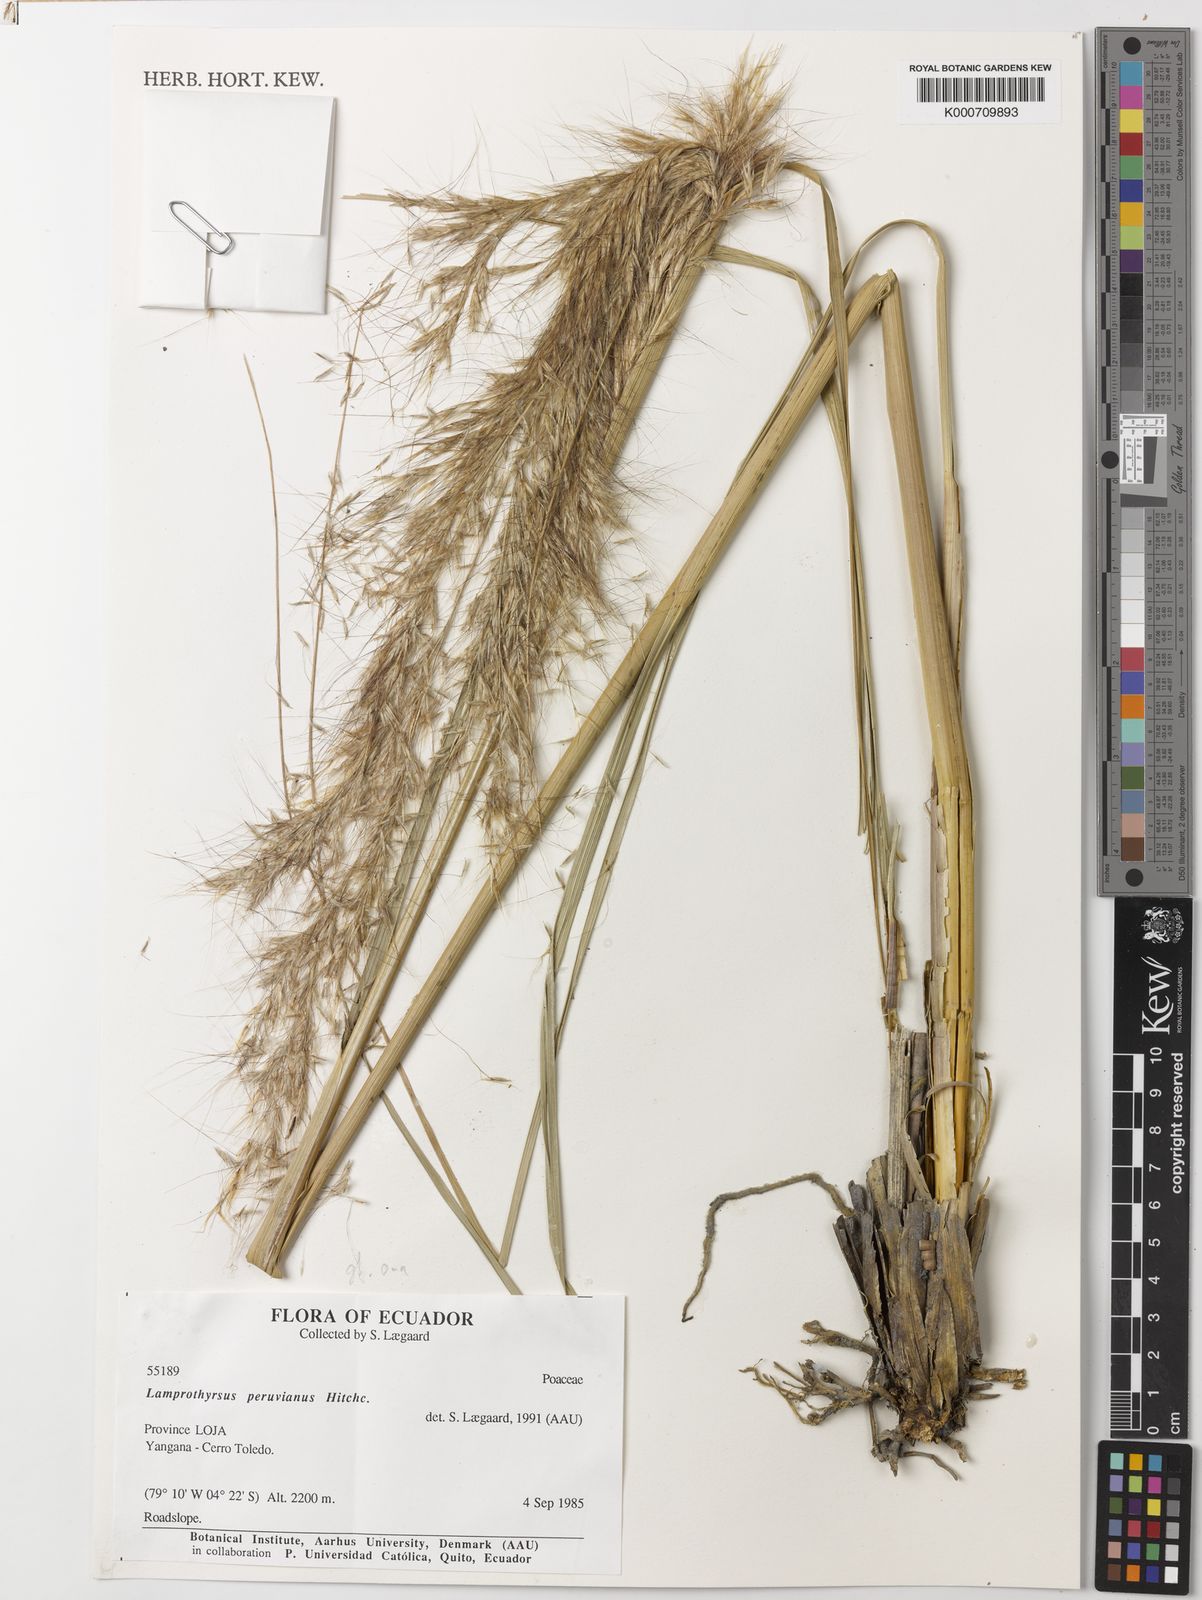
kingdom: Plantae
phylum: Tracheophyta
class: Liliopsida
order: Poales
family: Poaceae
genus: Cortaderia
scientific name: Cortaderia hieronymi
